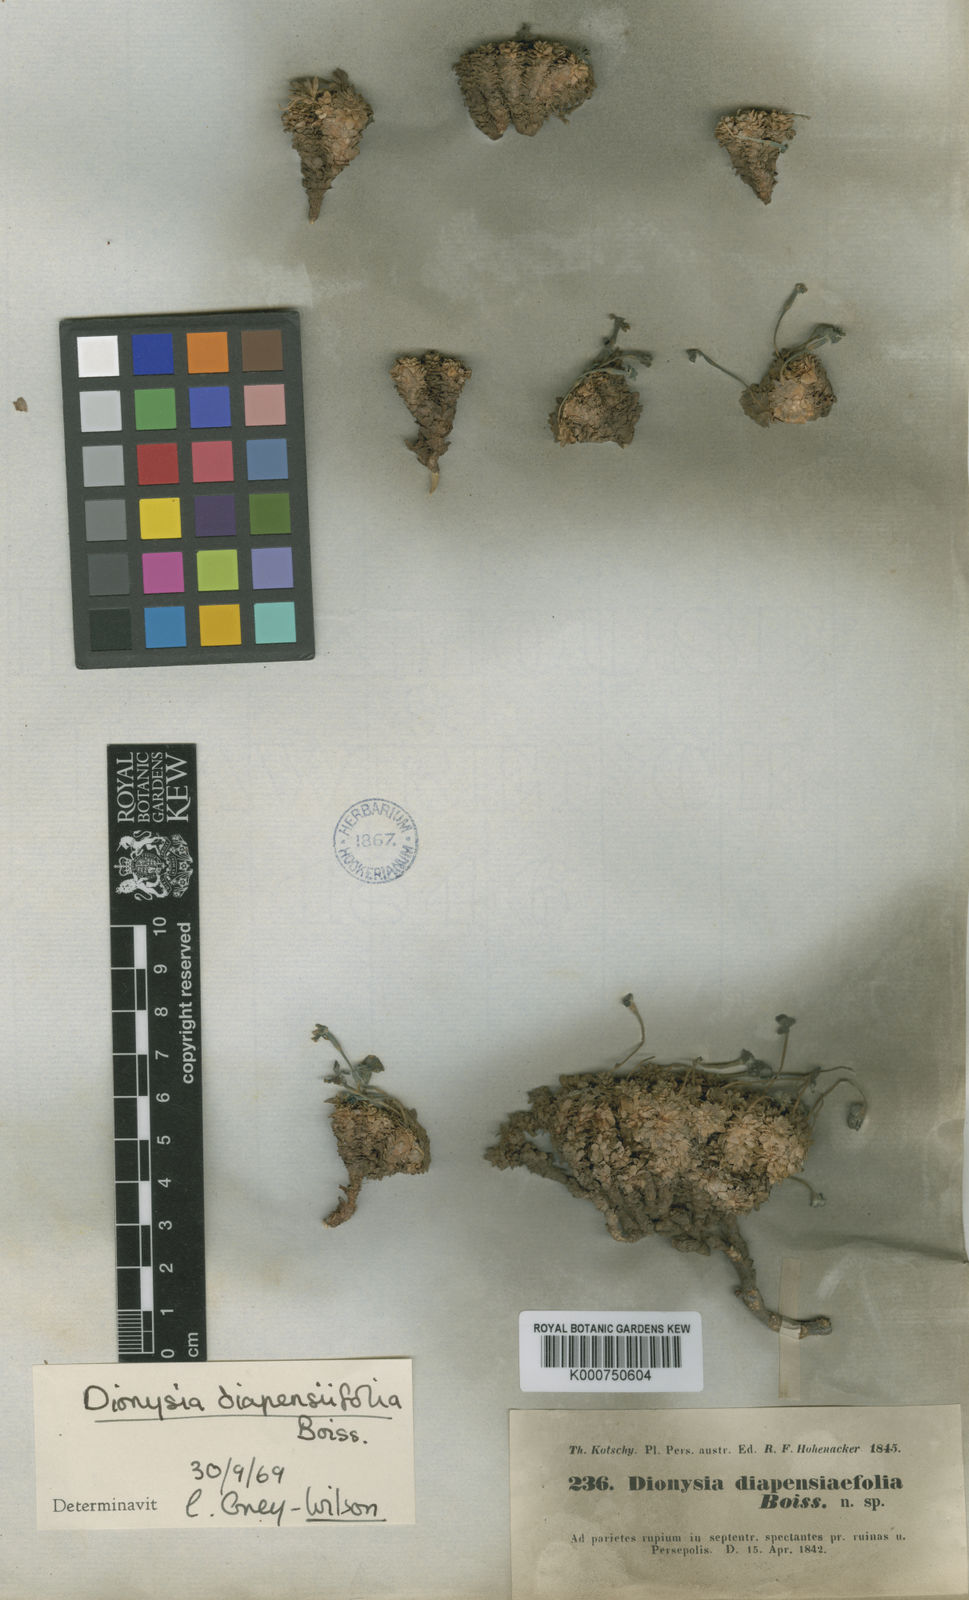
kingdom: Plantae
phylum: Tracheophyta
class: Magnoliopsida
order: Ericales
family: Primulaceae
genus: Dionysia
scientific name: Dionysia diapensiifolia
